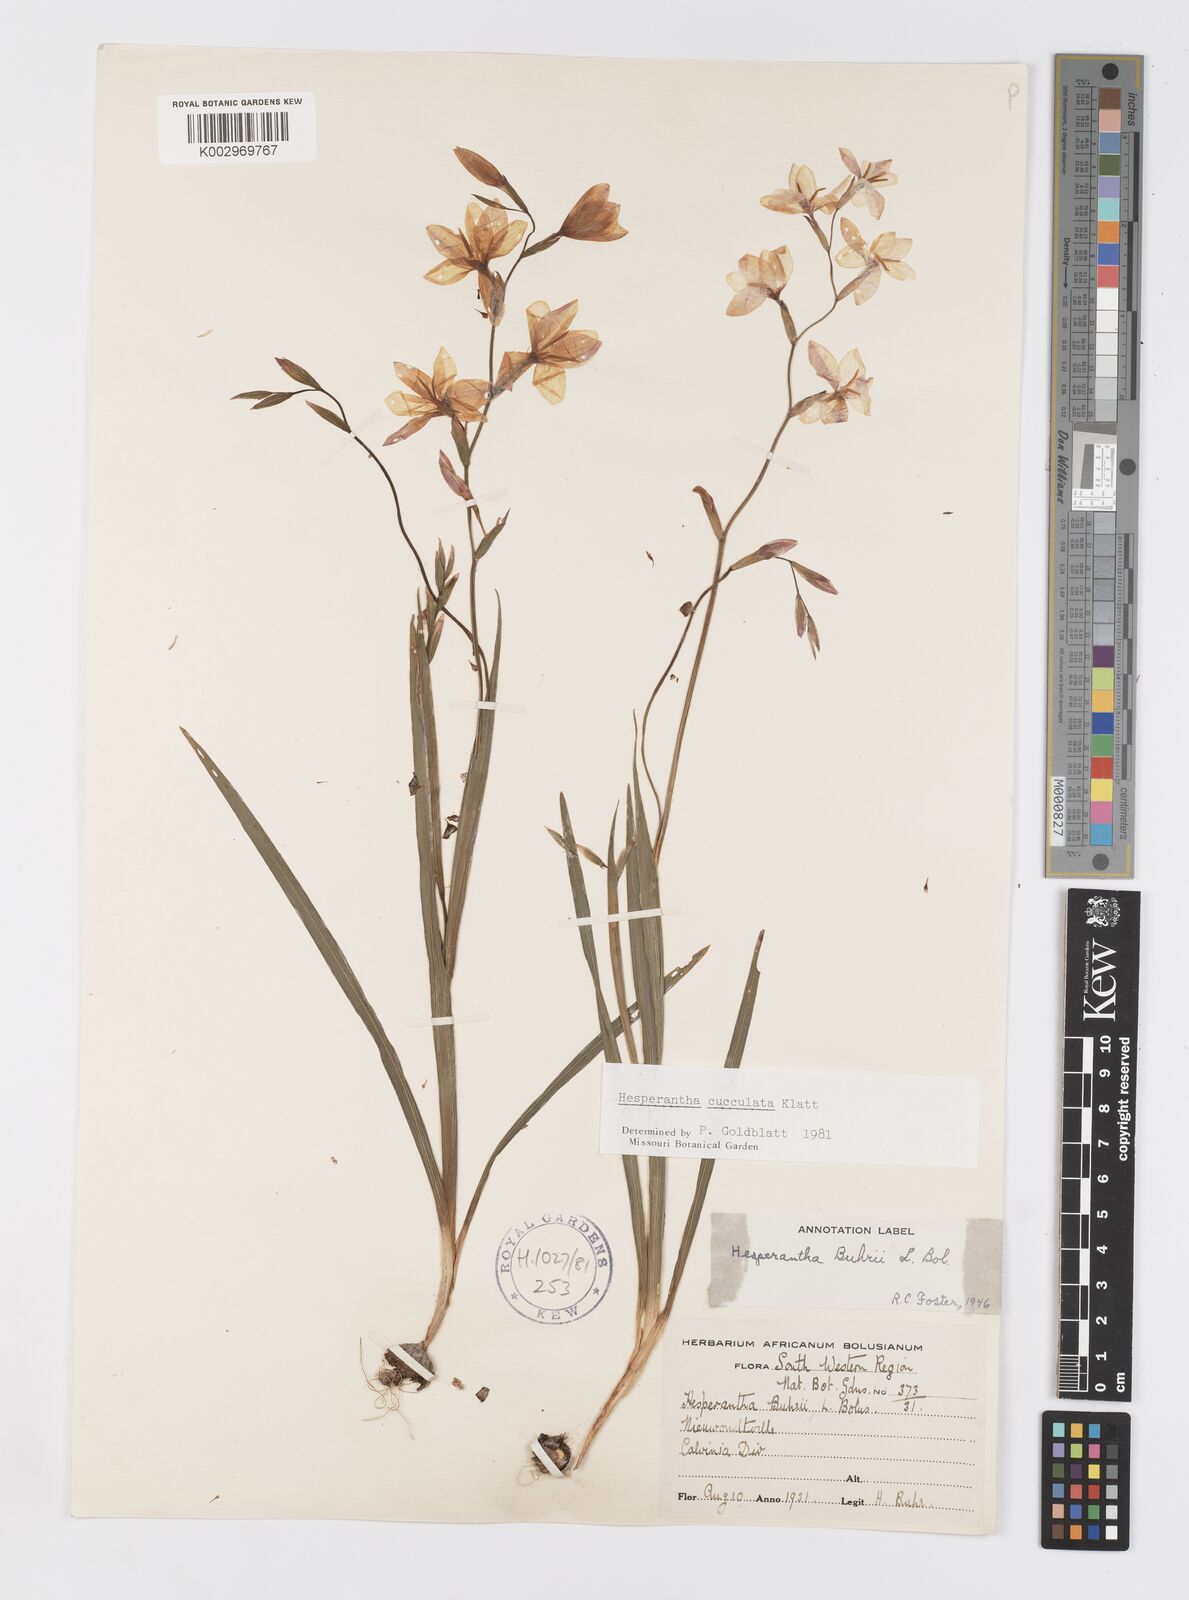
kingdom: Plantae
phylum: Tracheophyta
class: Liliopsida
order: Asparagales
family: Iridaceae
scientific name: Iridaceae
